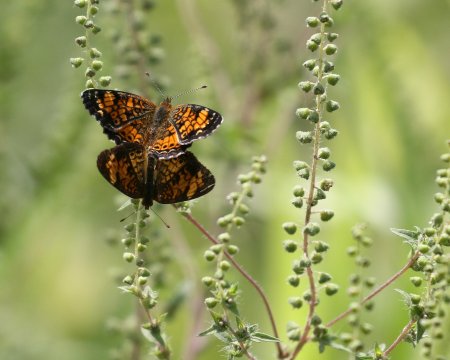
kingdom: Animalia
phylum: Arthropoda
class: Insecta
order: Lepidoptera
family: Nymphalidae
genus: Phyciodes
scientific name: Phyciodes tharos
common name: Pearl Crescent
